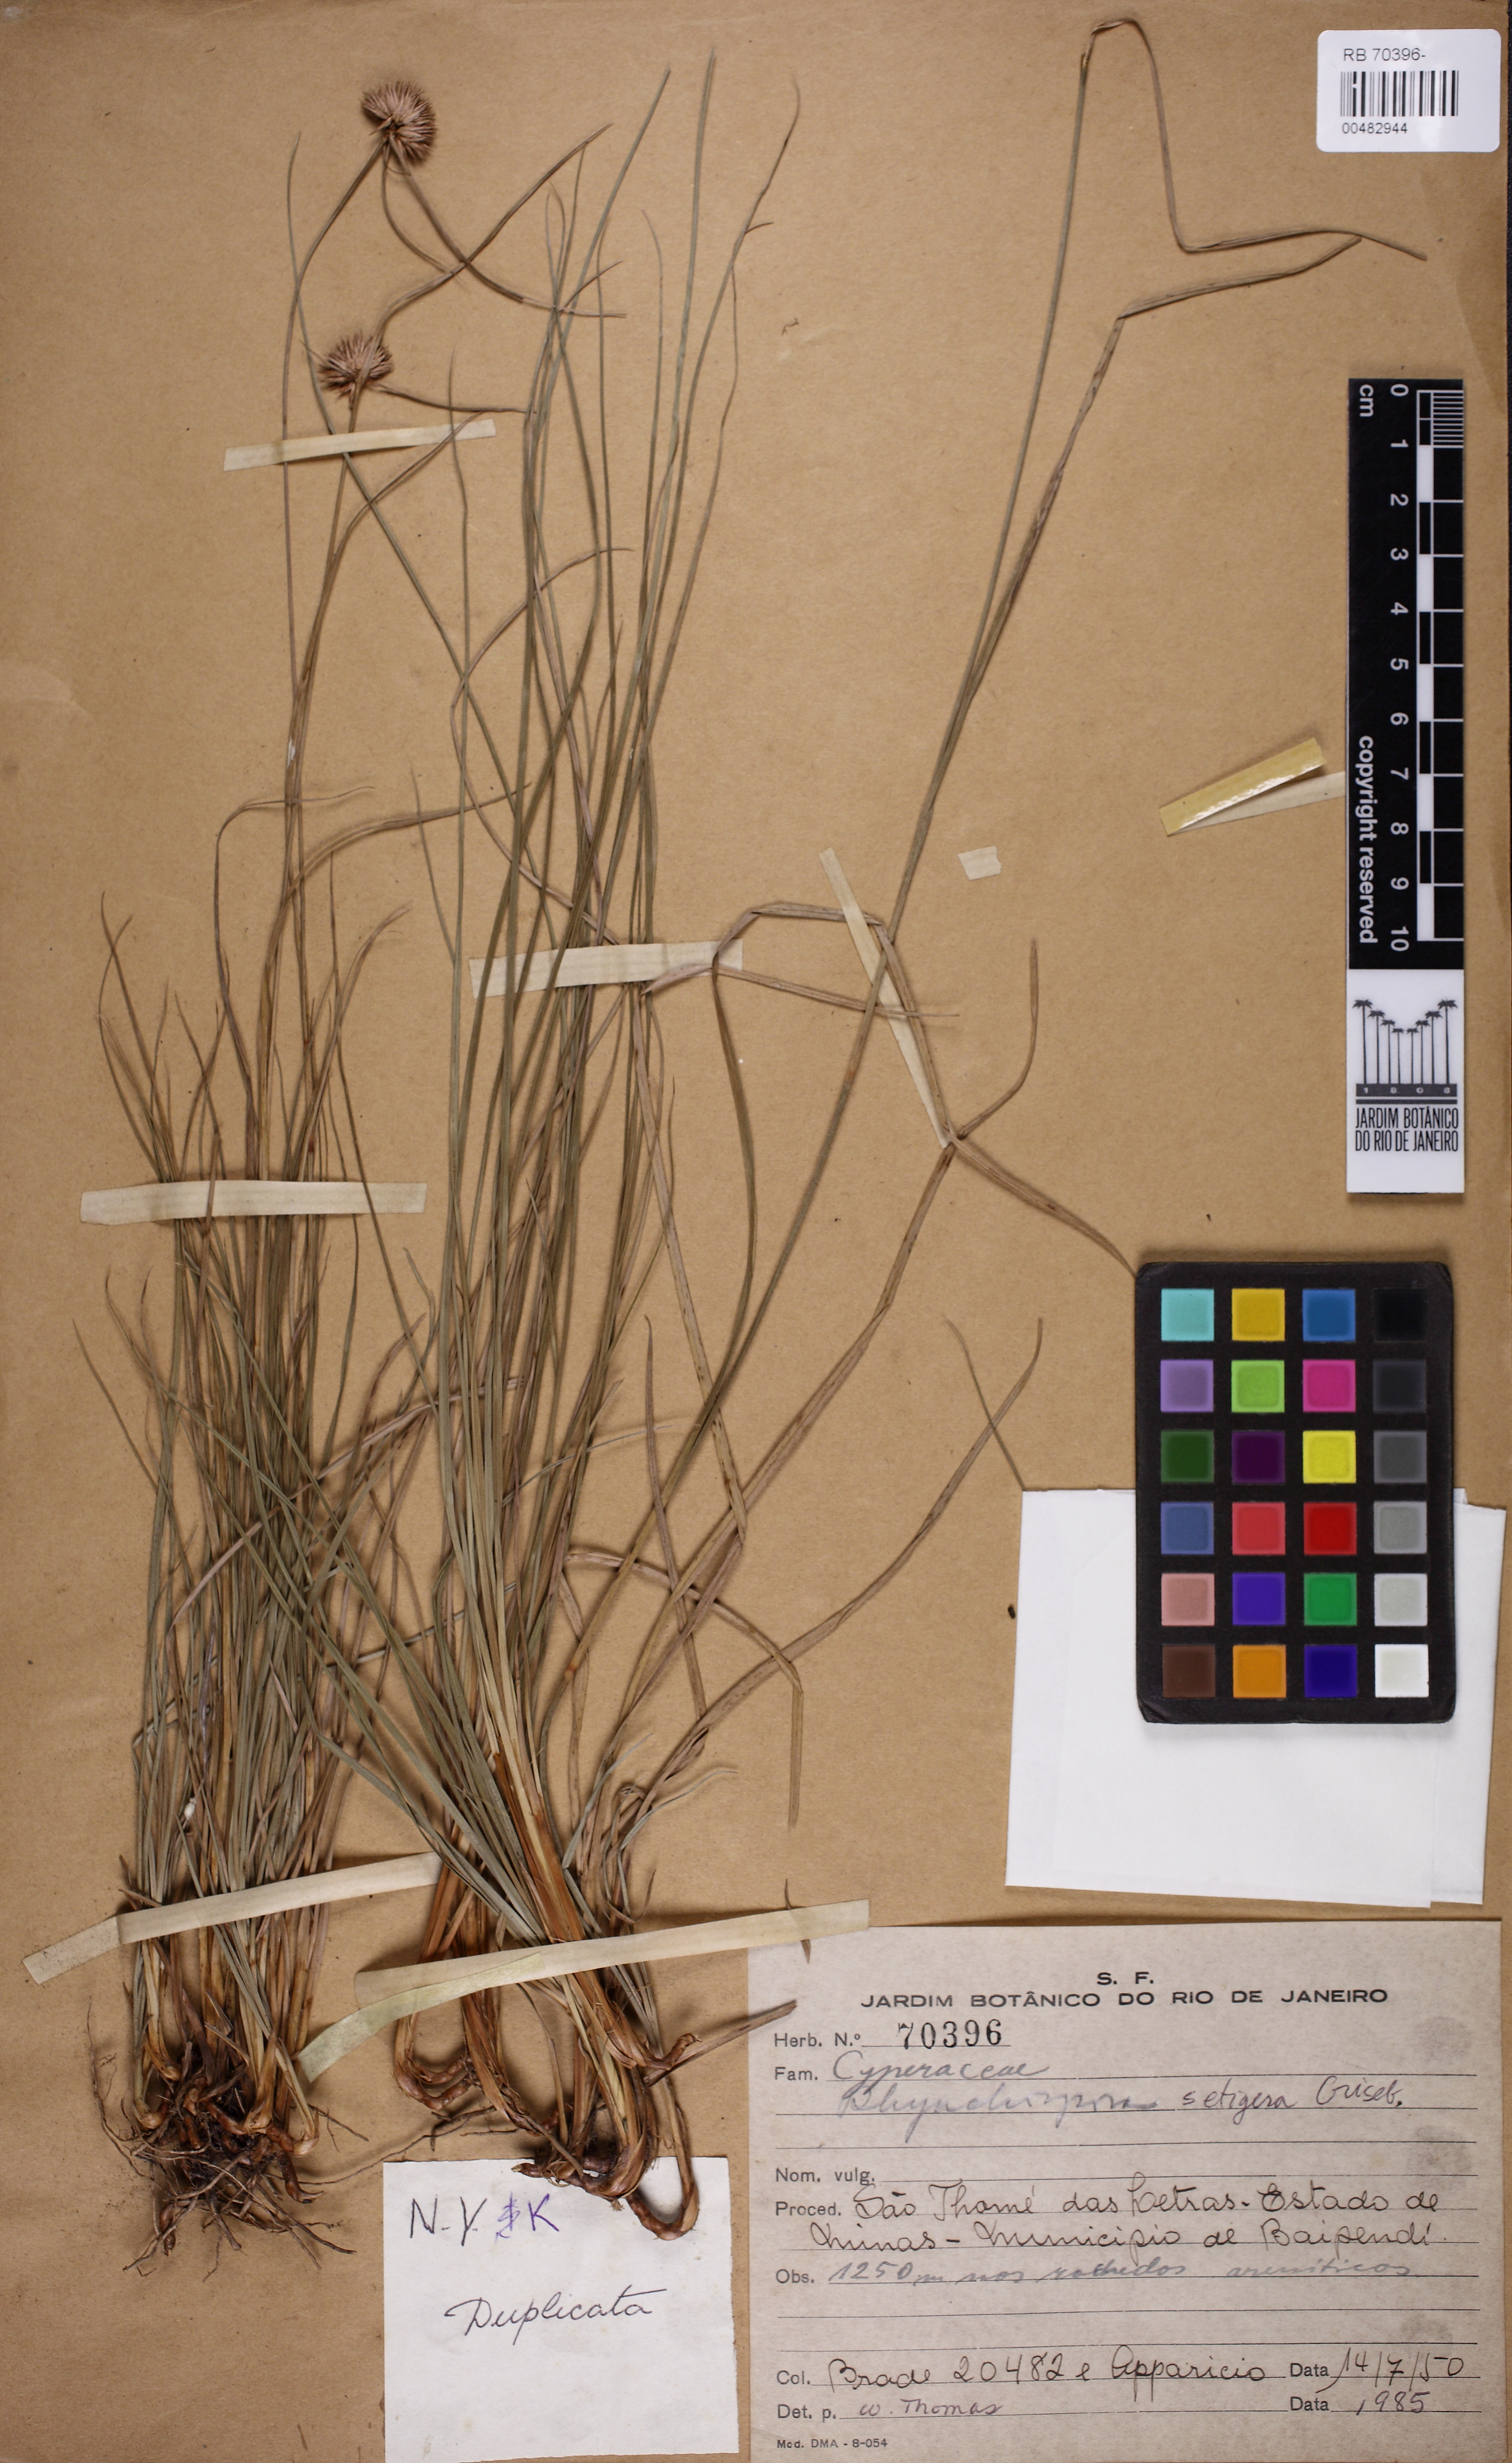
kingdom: Plantae
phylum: Tracheophyta
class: Liliopsida
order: Poales
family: Cyperaceae
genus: Rhynchospora
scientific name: Rhynchospora setigera
